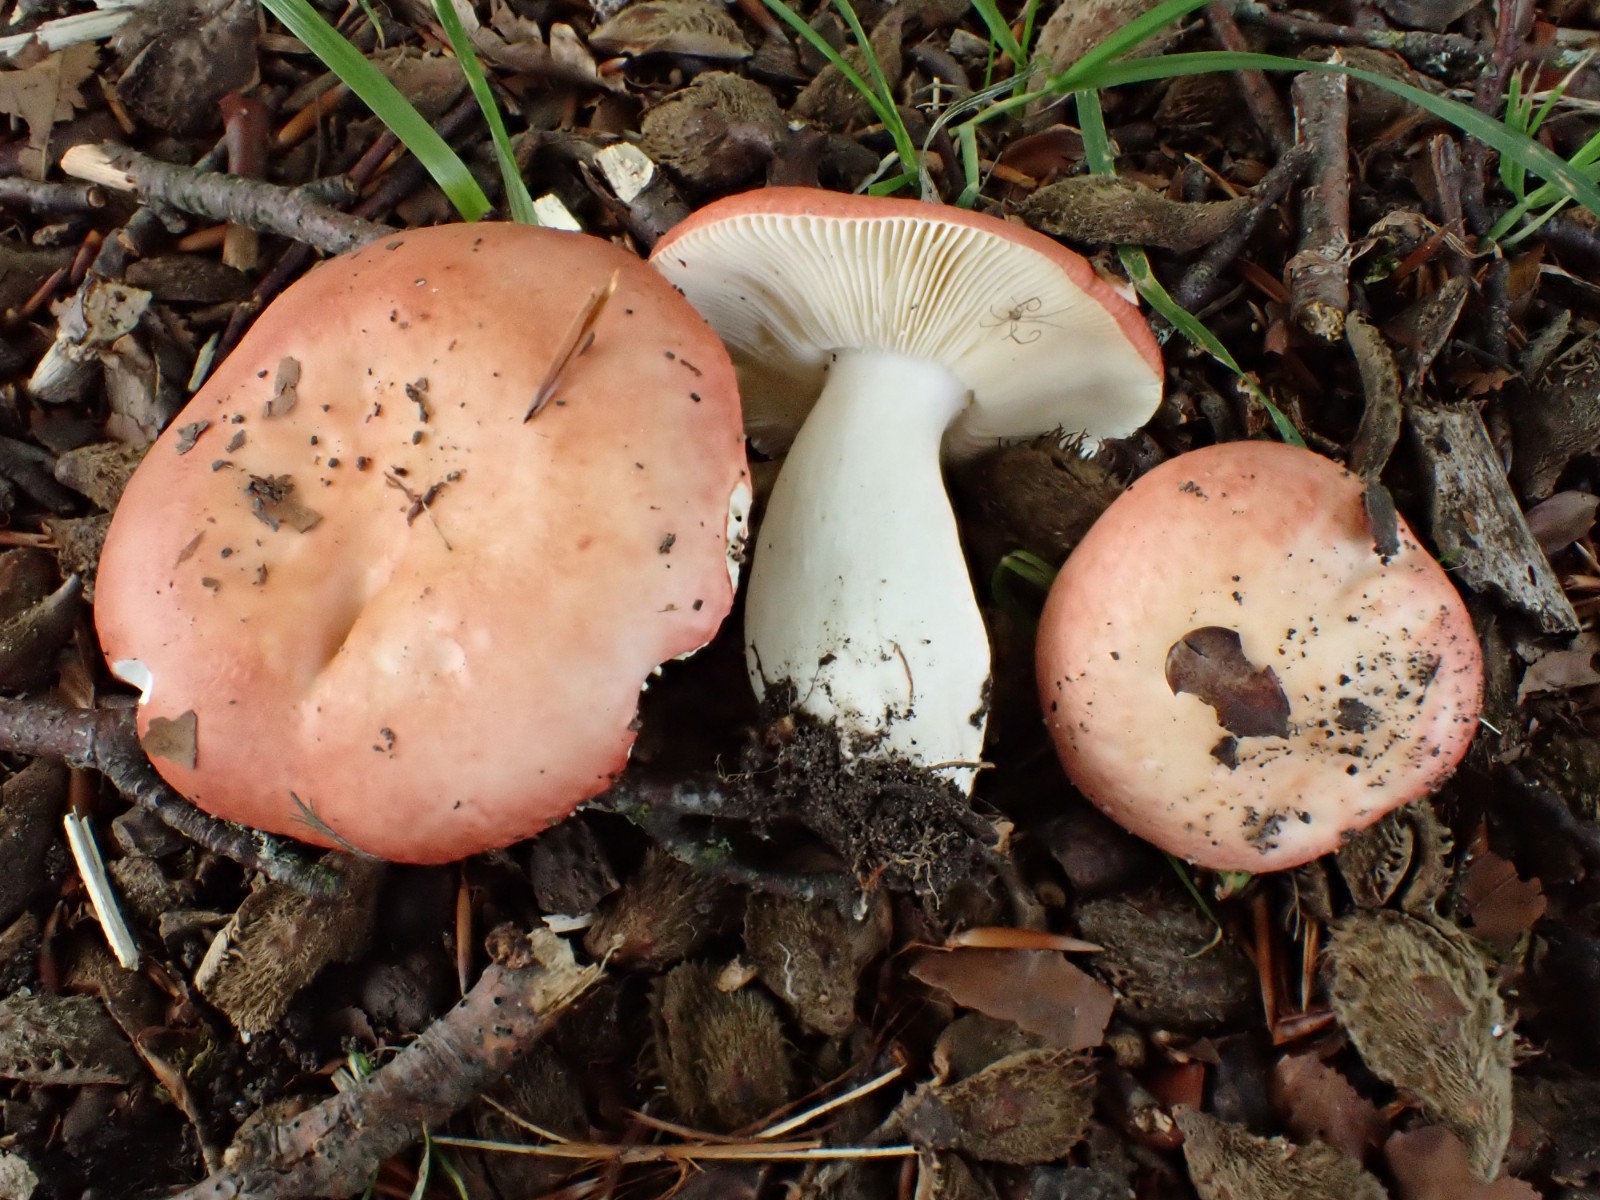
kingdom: Fungi
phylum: Basidiomycota
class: Agaricomycetes
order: Russulales
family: Russulaceae
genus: Russula
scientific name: Russula maculata
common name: plettet skørhat
